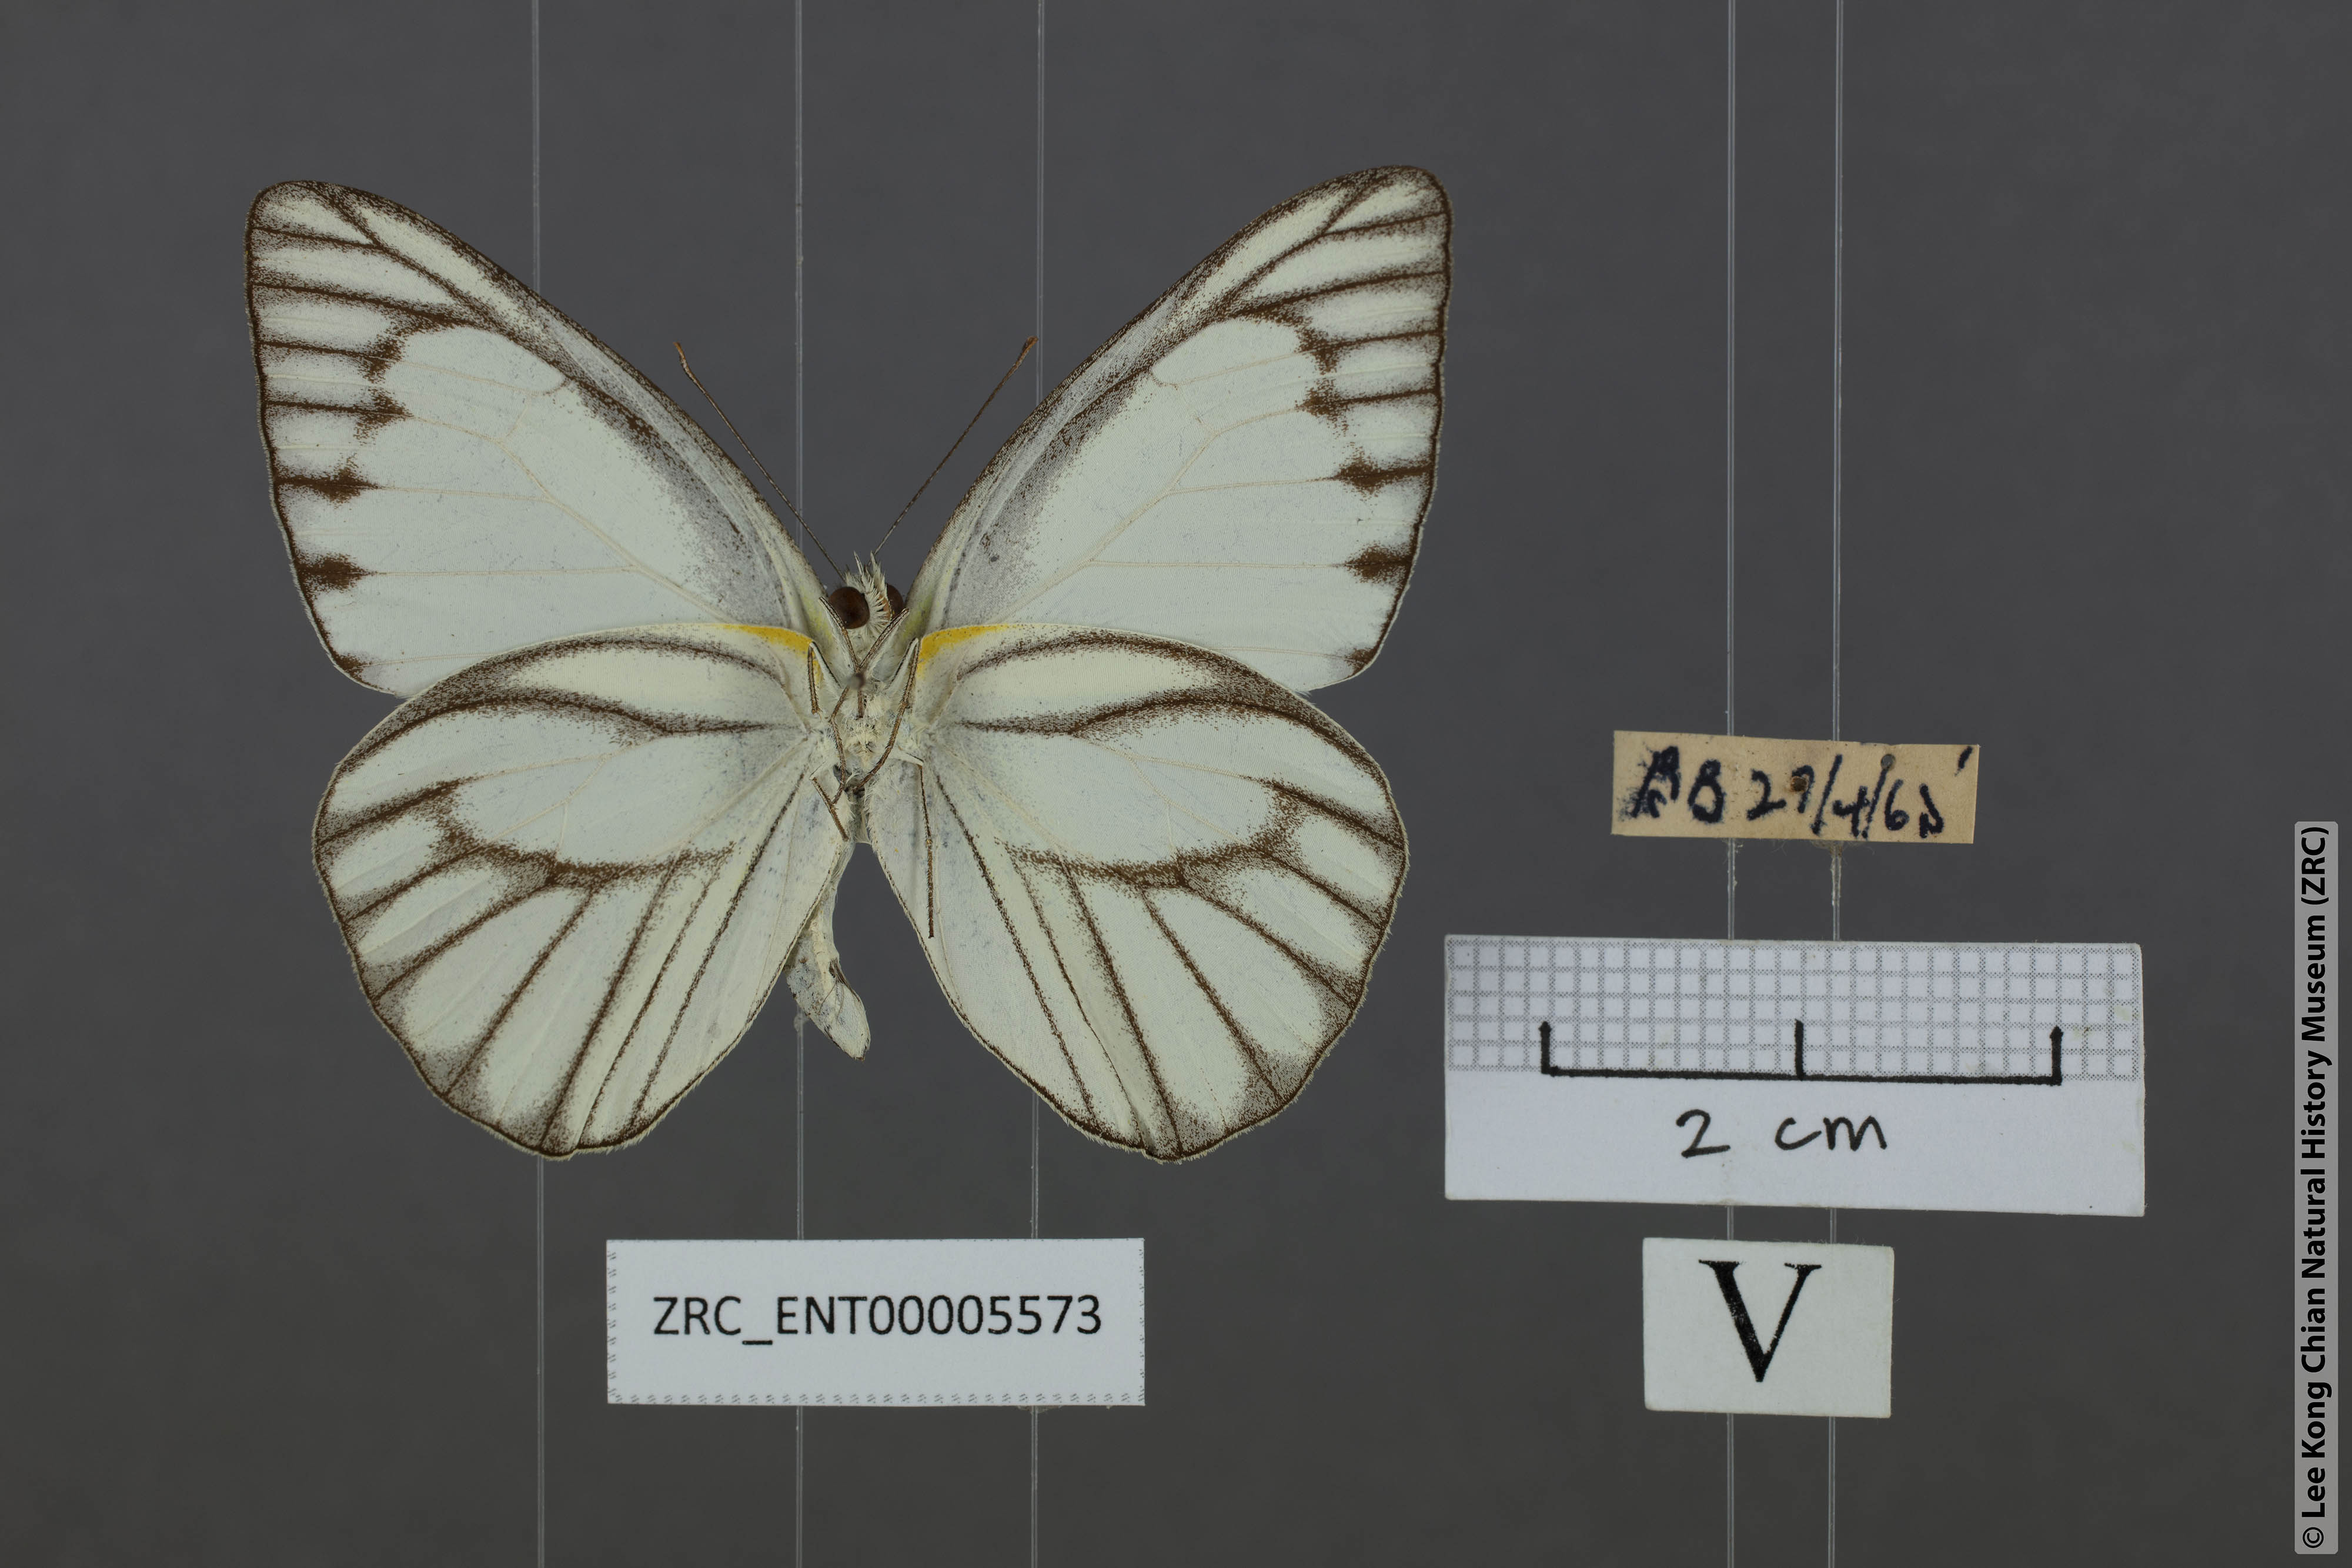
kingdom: Animalia
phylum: Arthropoda
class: Insecta
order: Lepidoptera
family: Pieridae
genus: Appias
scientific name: Appias libythea
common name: Striped albatross
